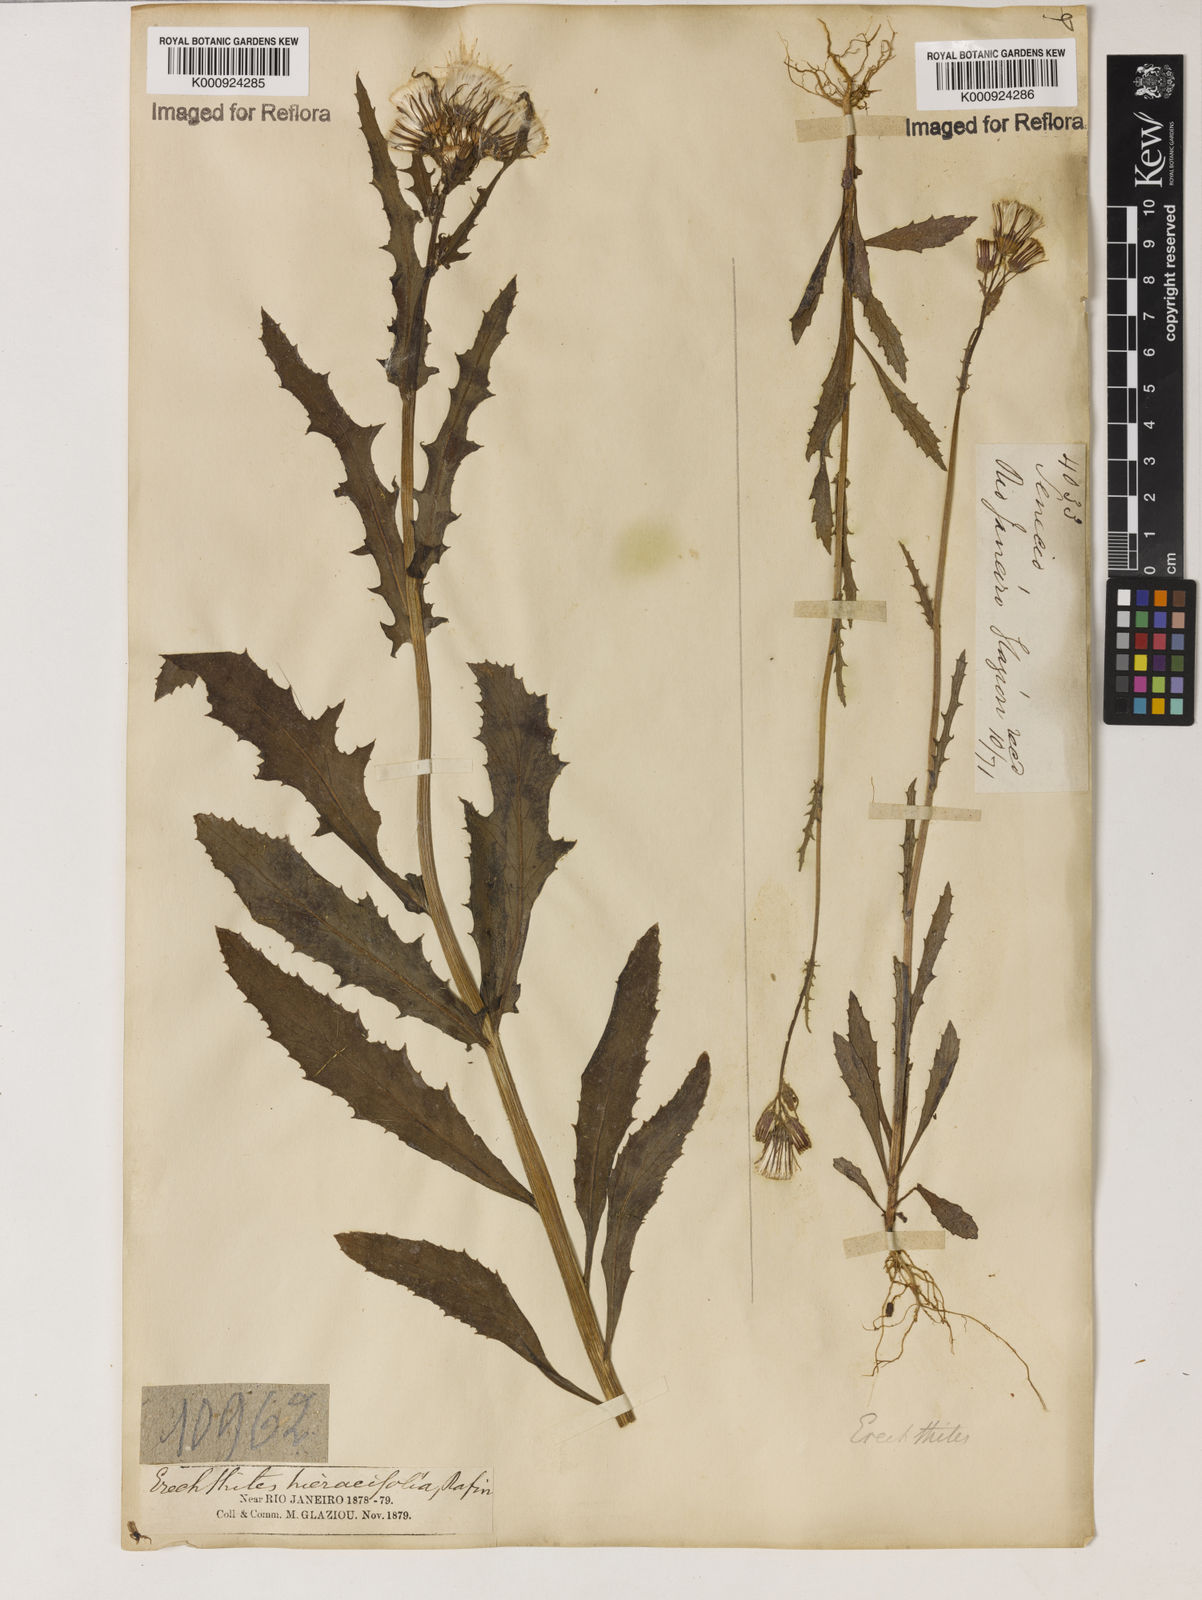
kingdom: Plantae
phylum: Tracheophyta
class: Magnoliopsida
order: Asterales
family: Asteraceae
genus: Erechtites
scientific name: Erechtites hieraciifolius
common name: American burnweed
